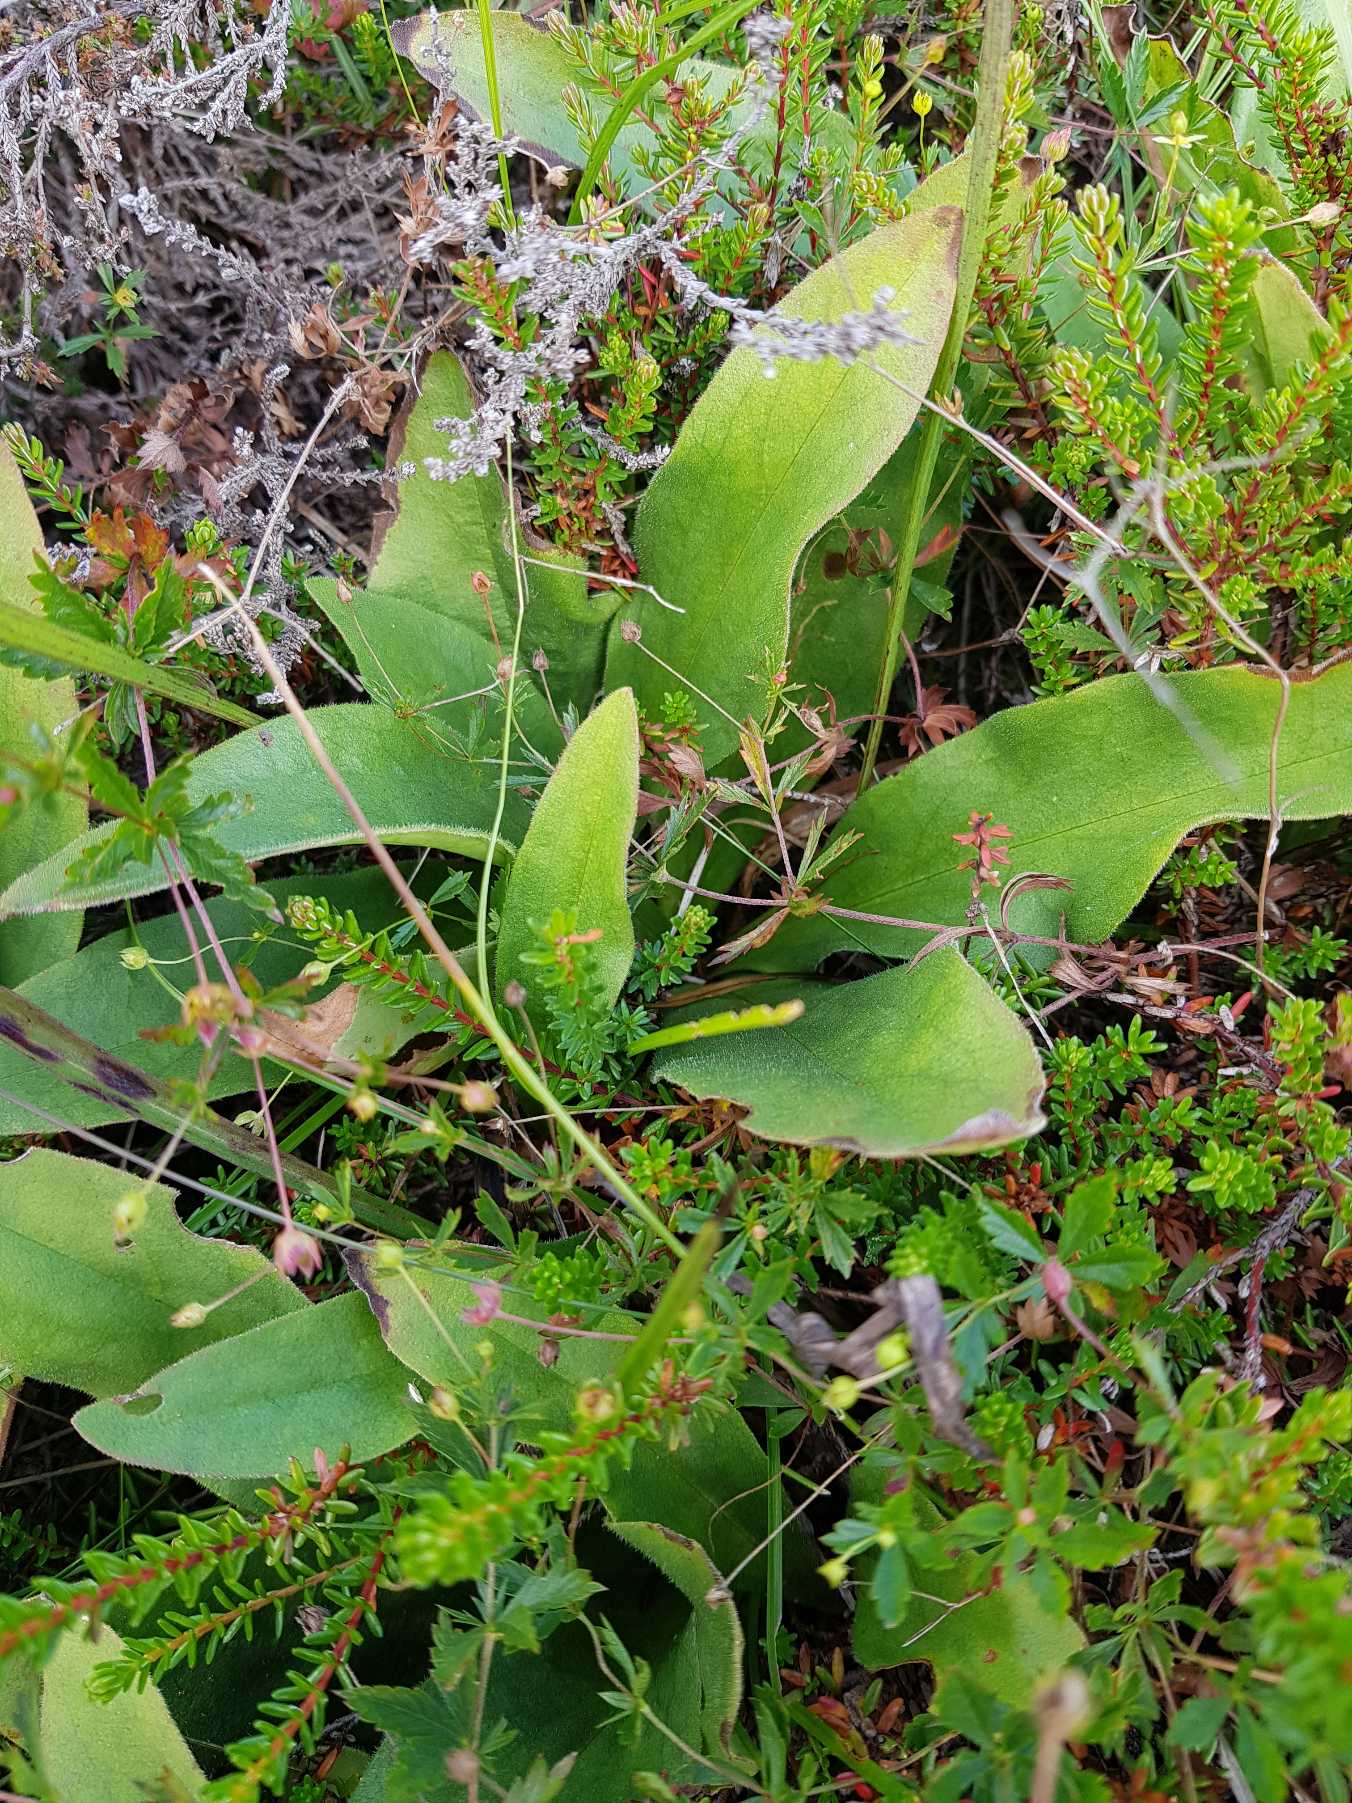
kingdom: Plantae
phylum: Tracheophyta
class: Magnoliopsida
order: Asterales
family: Asteraceae
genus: Arnica
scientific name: Arnica montana
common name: Guldblomme
